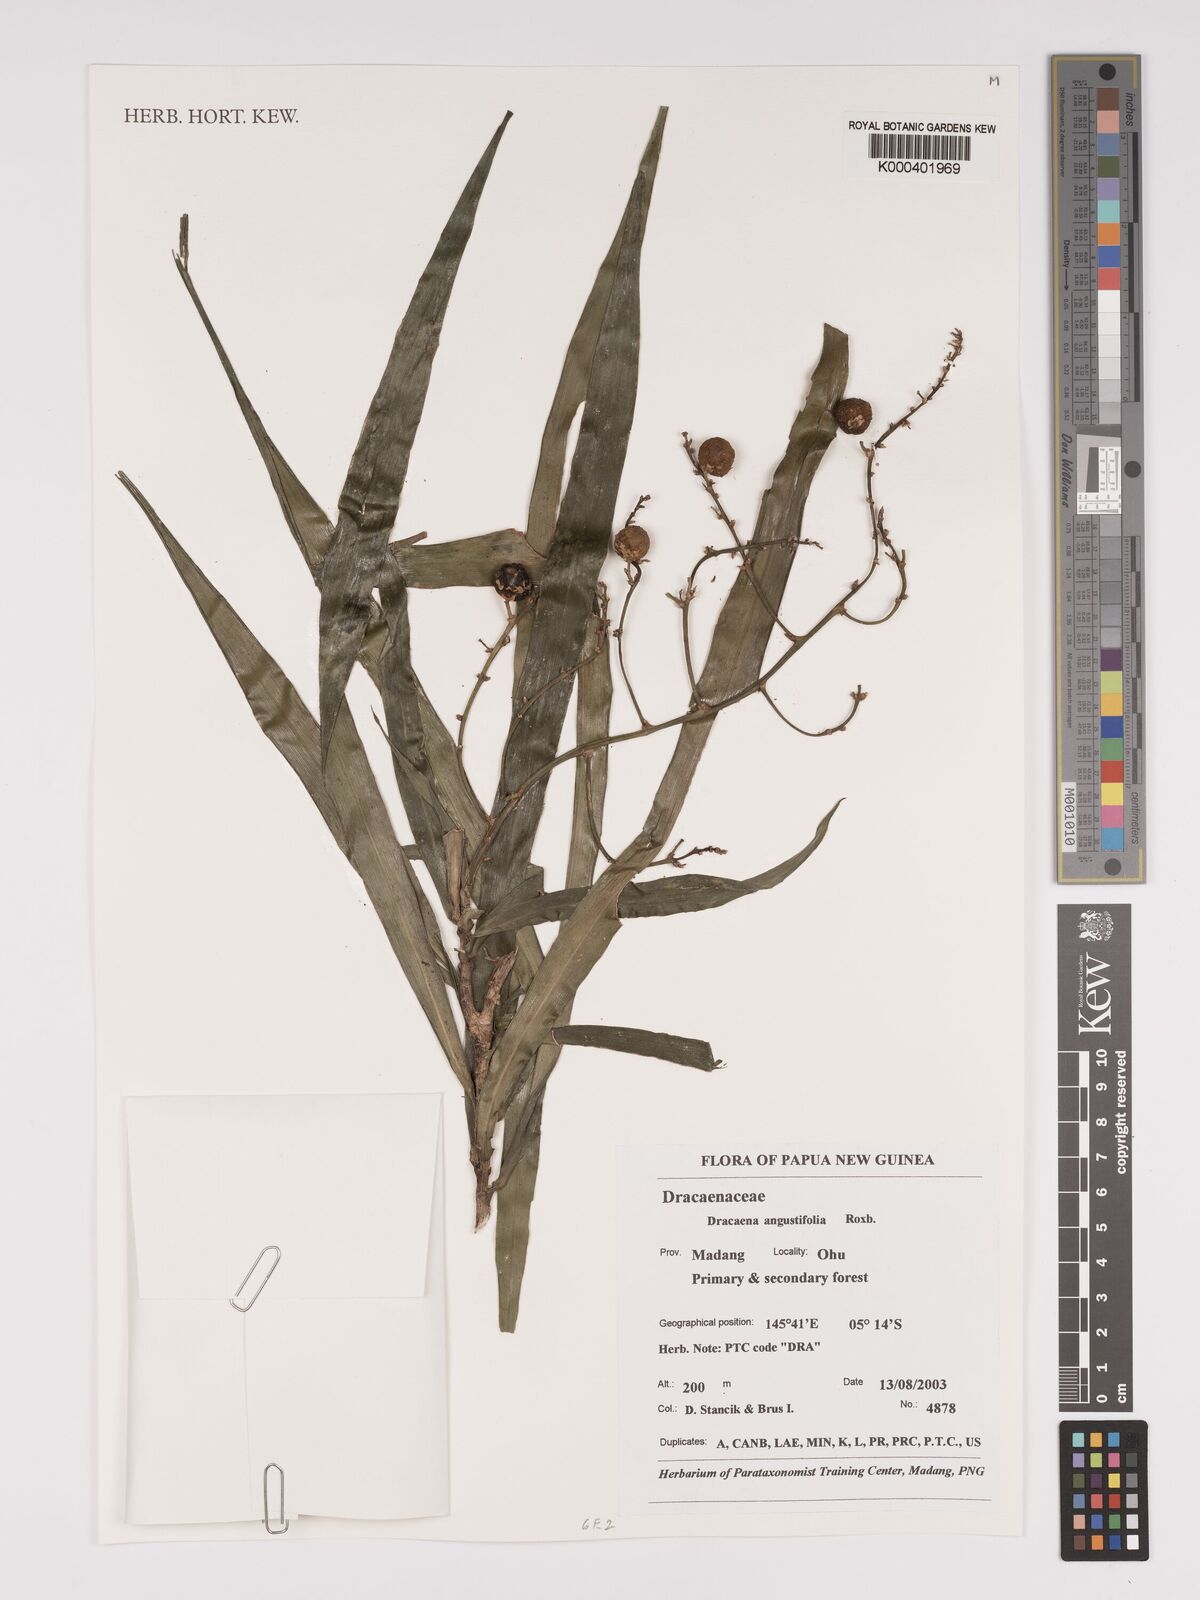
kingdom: Plantae
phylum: Tracheophyta
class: Liliopsida
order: Asparagales
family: Asparagaceae
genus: Dracaena
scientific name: Dracaena angustifolia
